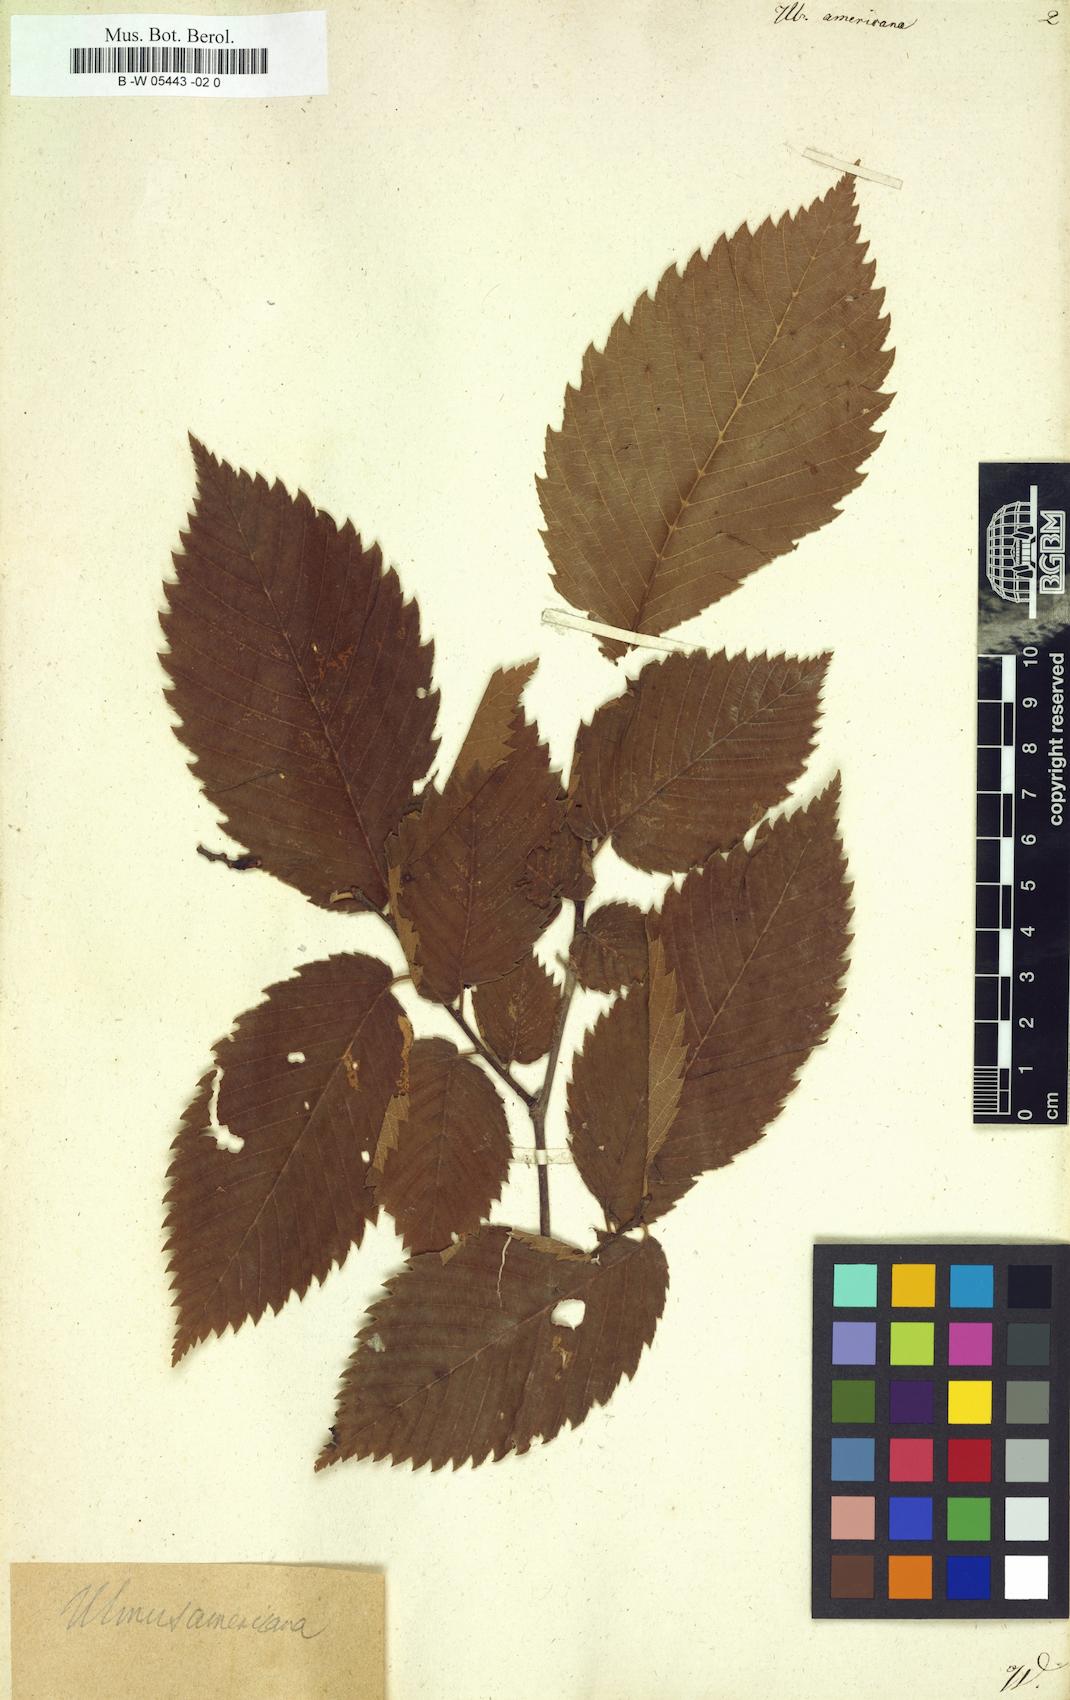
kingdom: Plantae
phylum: Tracheophyta
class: Magnoliopsida
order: Rosales
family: Ulmaceae
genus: Ulmus
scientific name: Ulmus americana
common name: American elm
